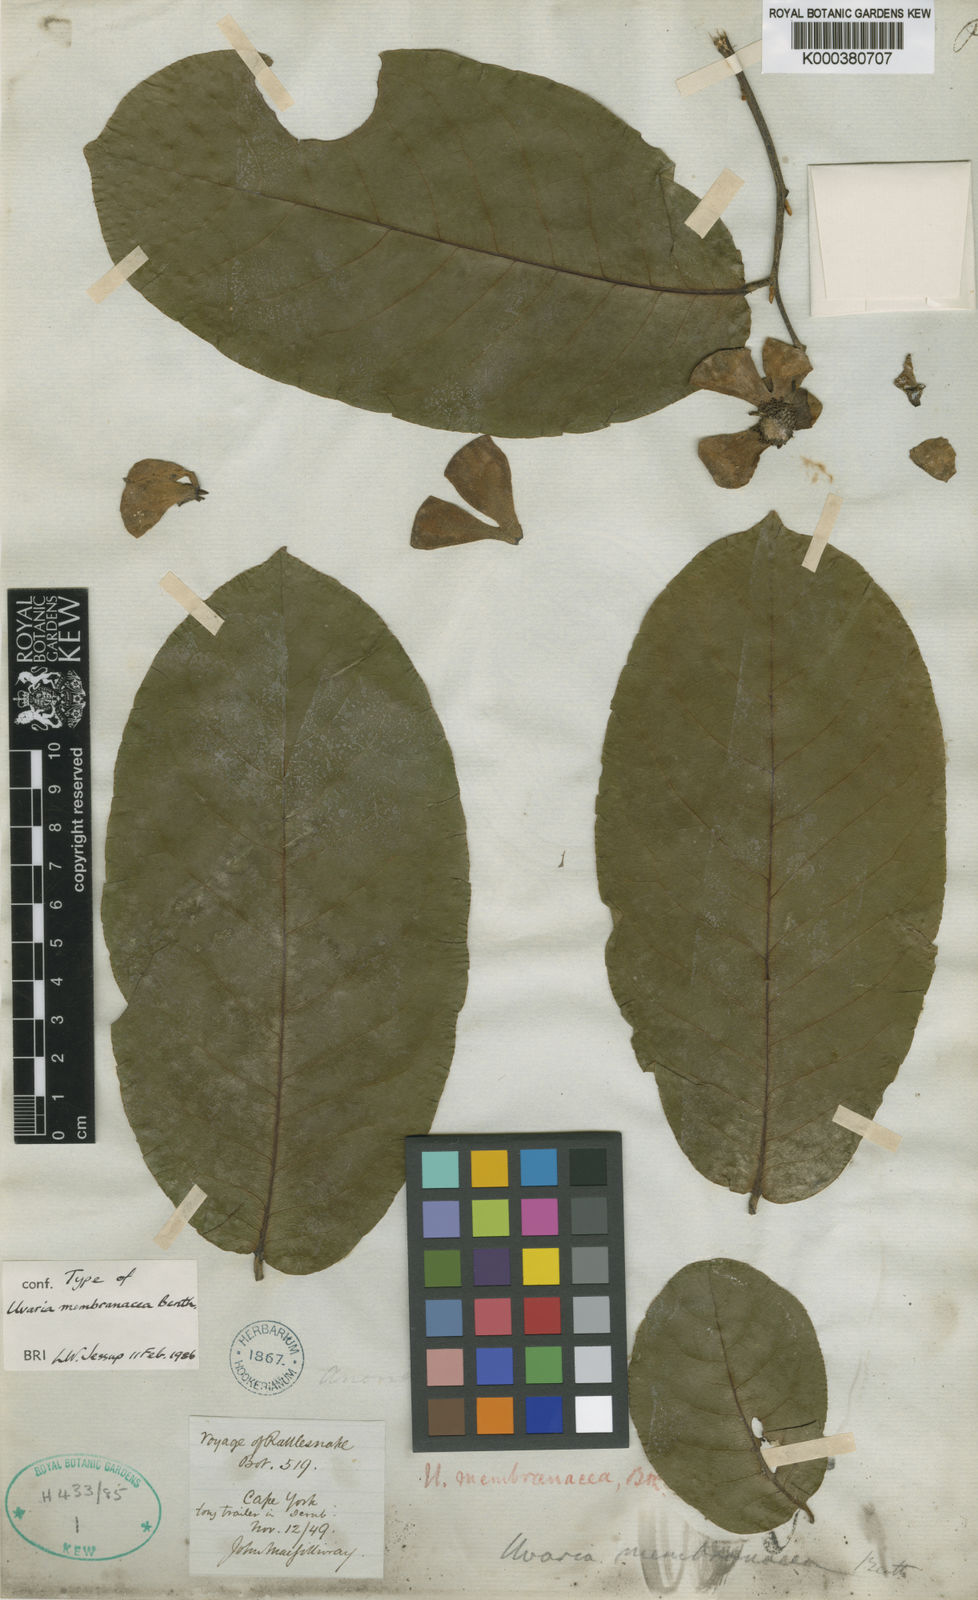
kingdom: Plantae
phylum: Tracheophyta
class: Magnoliopsida
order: Magnoliales
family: Annonaceae
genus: Uvaria
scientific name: Uvaria concava
